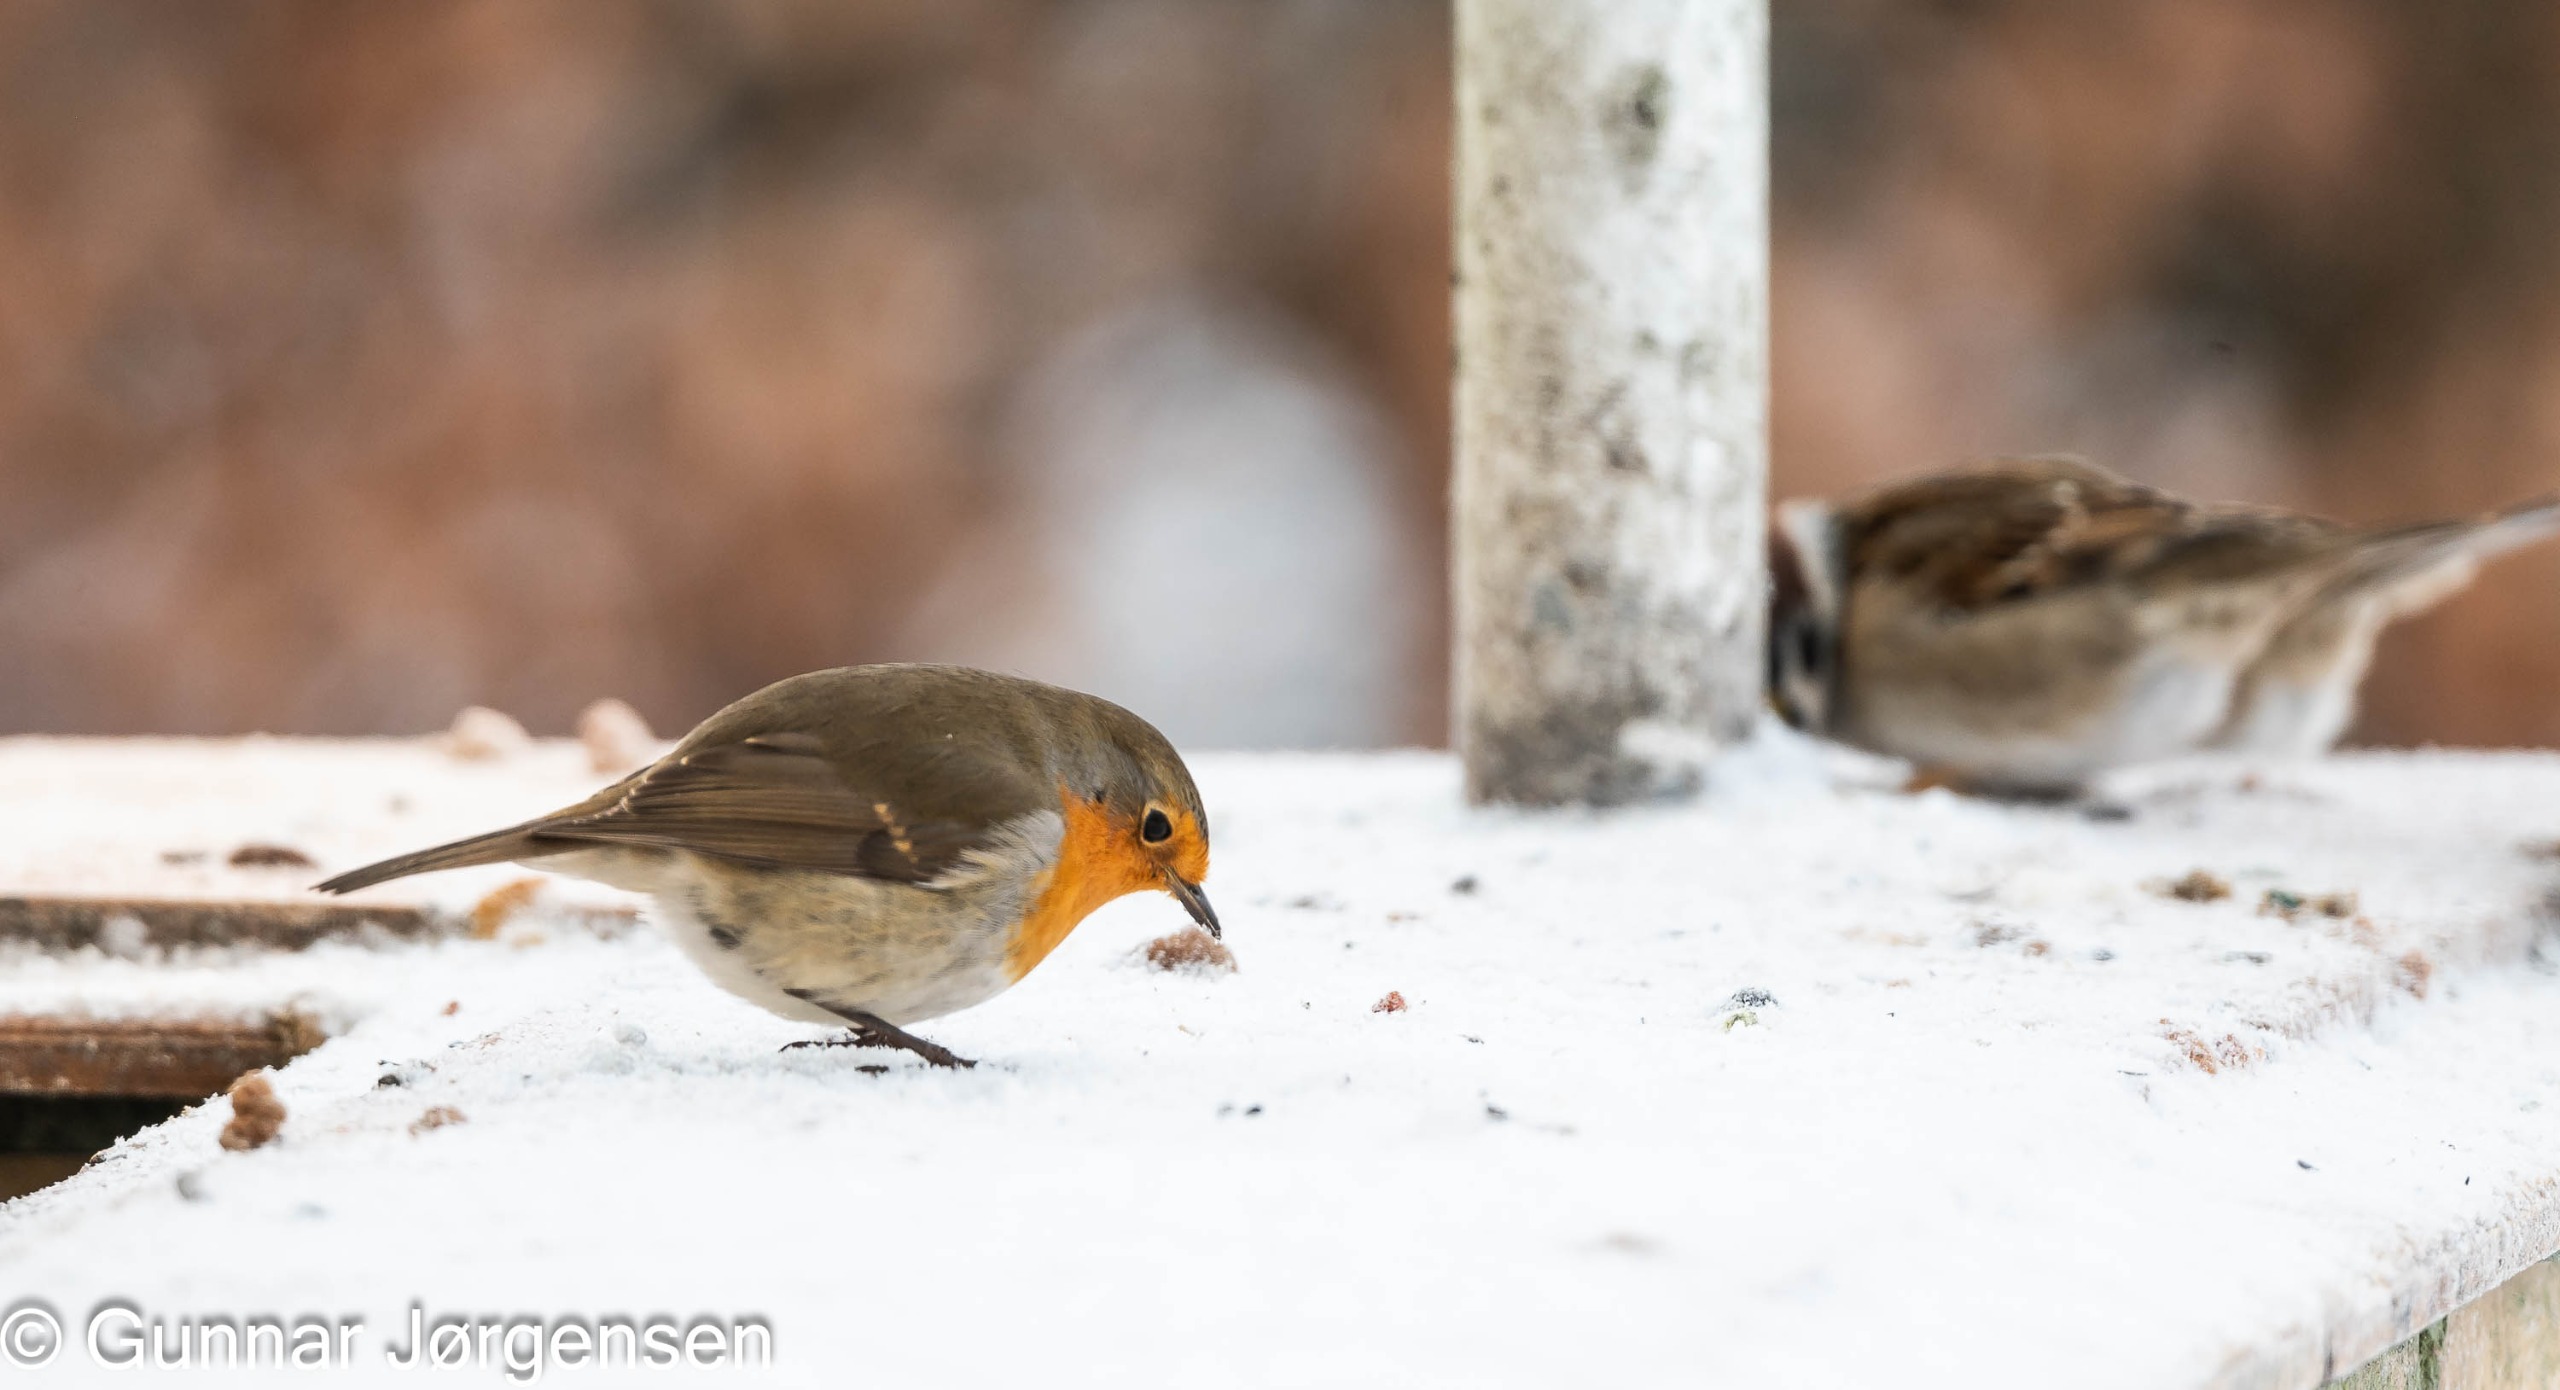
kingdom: Animalia
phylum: Chordata
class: Aves
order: Passeriformes
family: Muscicapidae
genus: Erithacus
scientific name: Erithacus rubecula
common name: Rødhals/rødkælk
